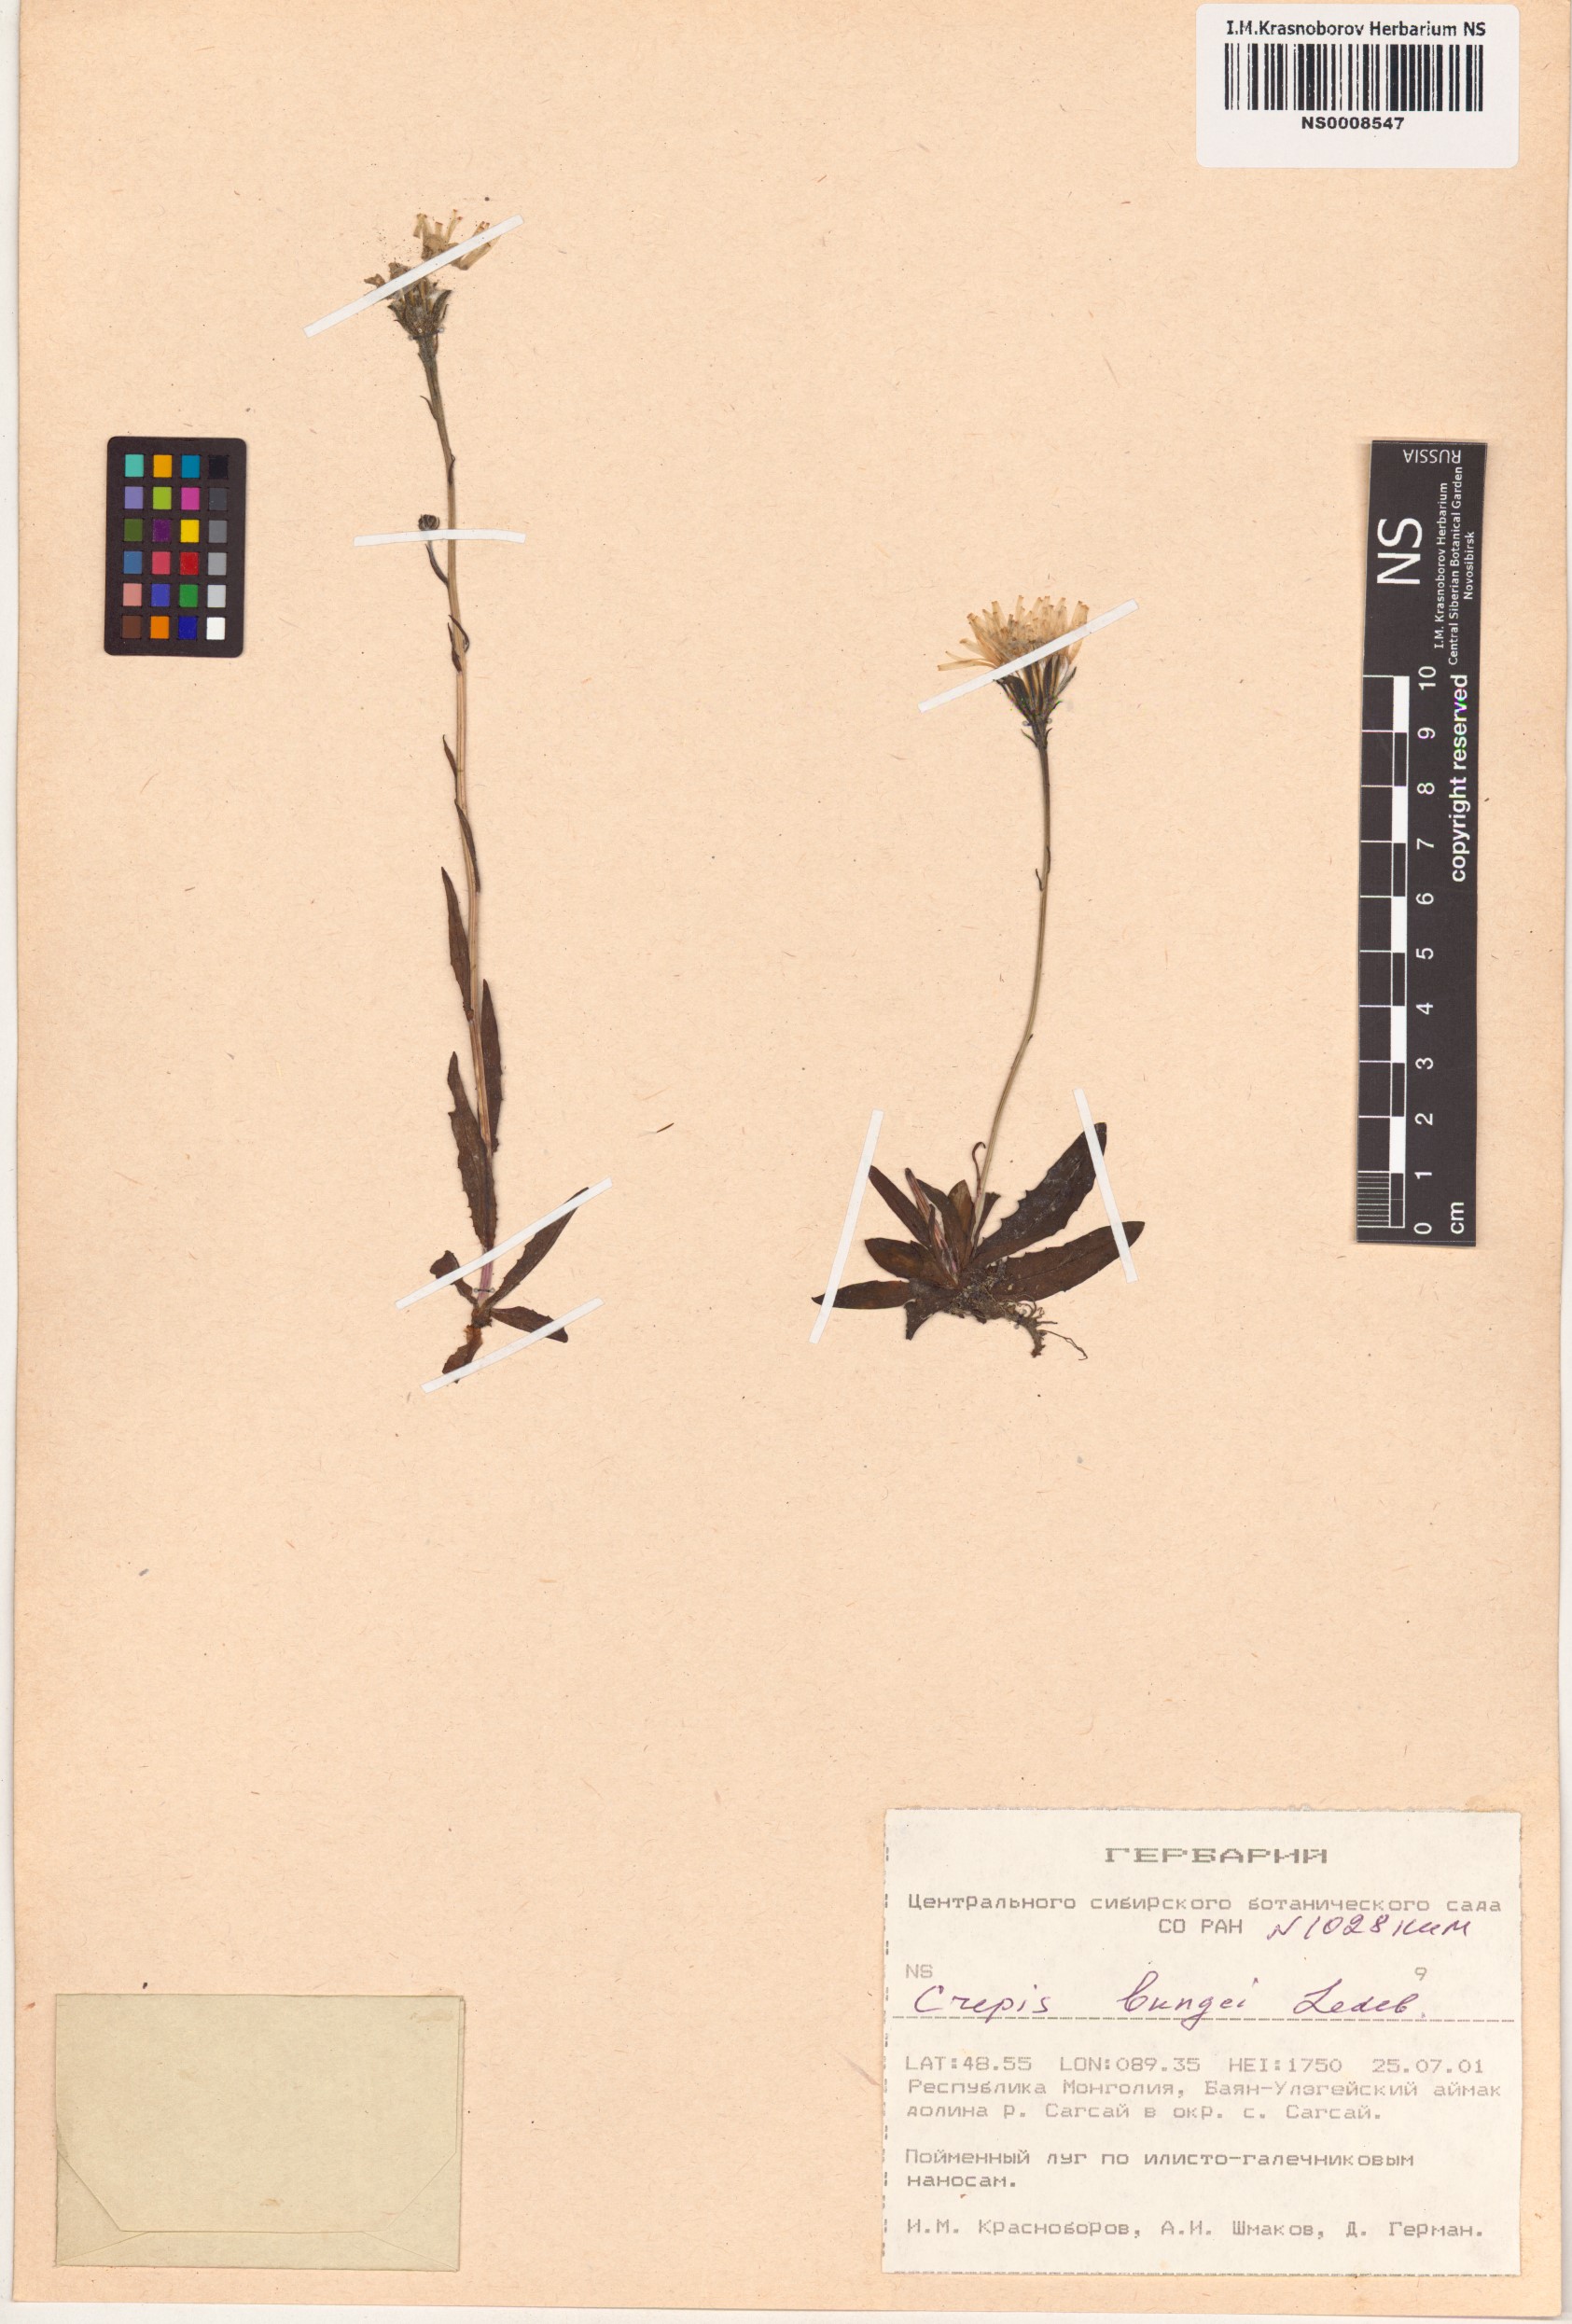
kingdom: Plantae
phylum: Tracheophyta
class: Magnoliopsida
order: Asterales
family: Asteraceae
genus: Crepis
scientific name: Crepis bungei
